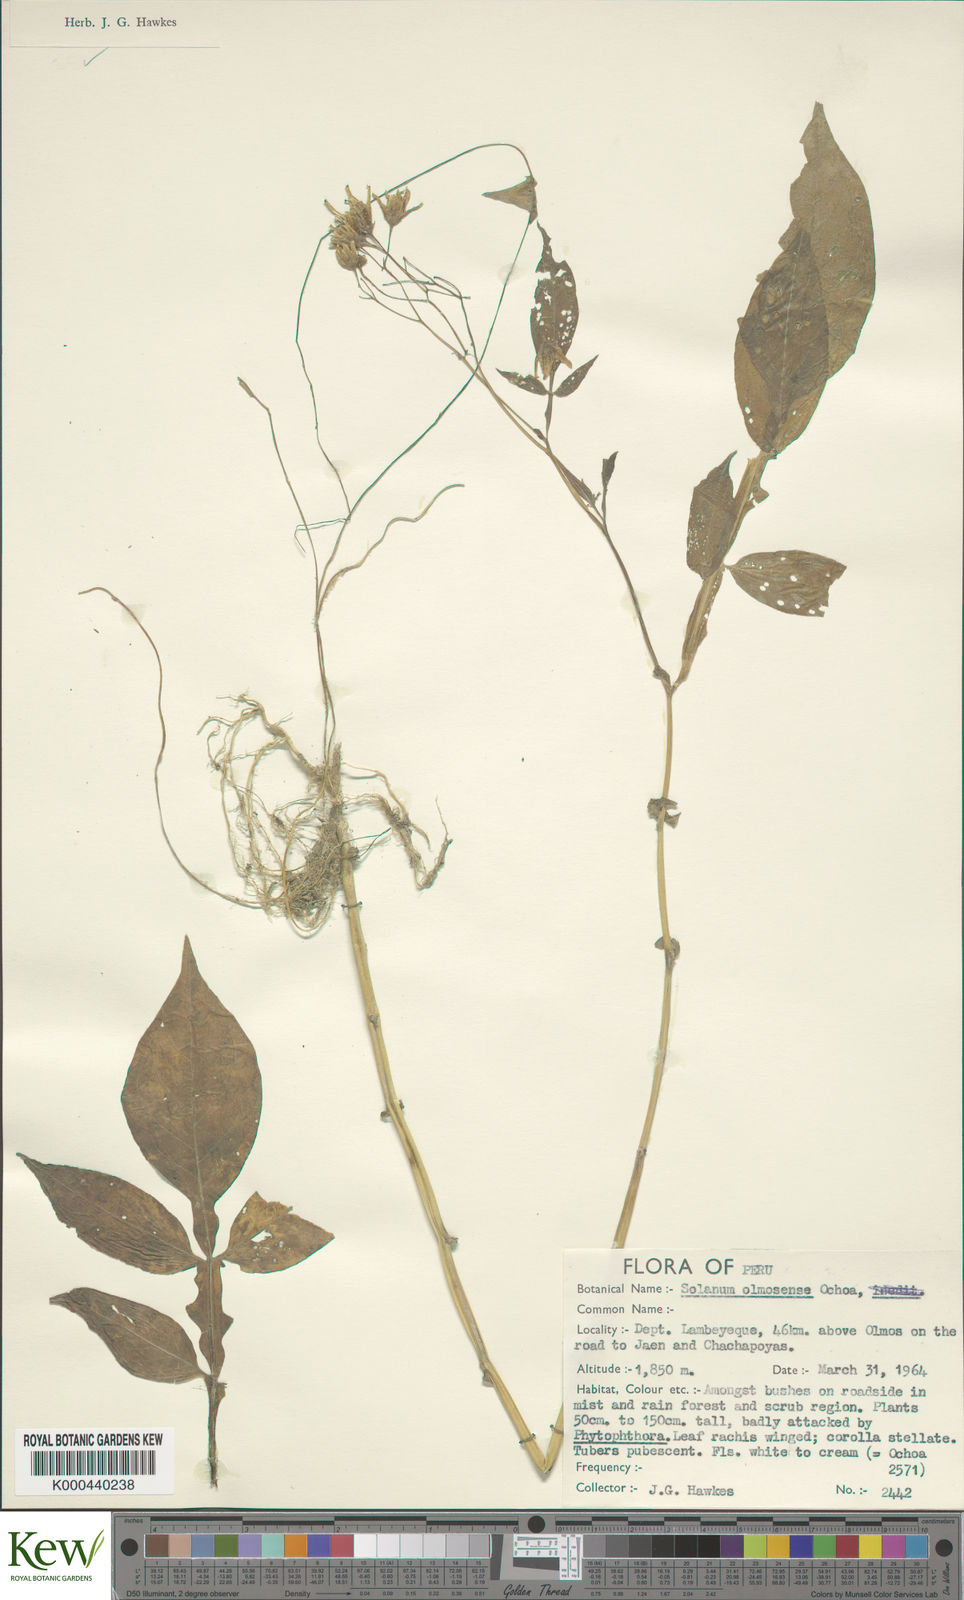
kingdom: Plantae
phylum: Tracheophyta
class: Magnoliopsida
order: Solanales
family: Solanaceae
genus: Solanum
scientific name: Solanum olmosense
